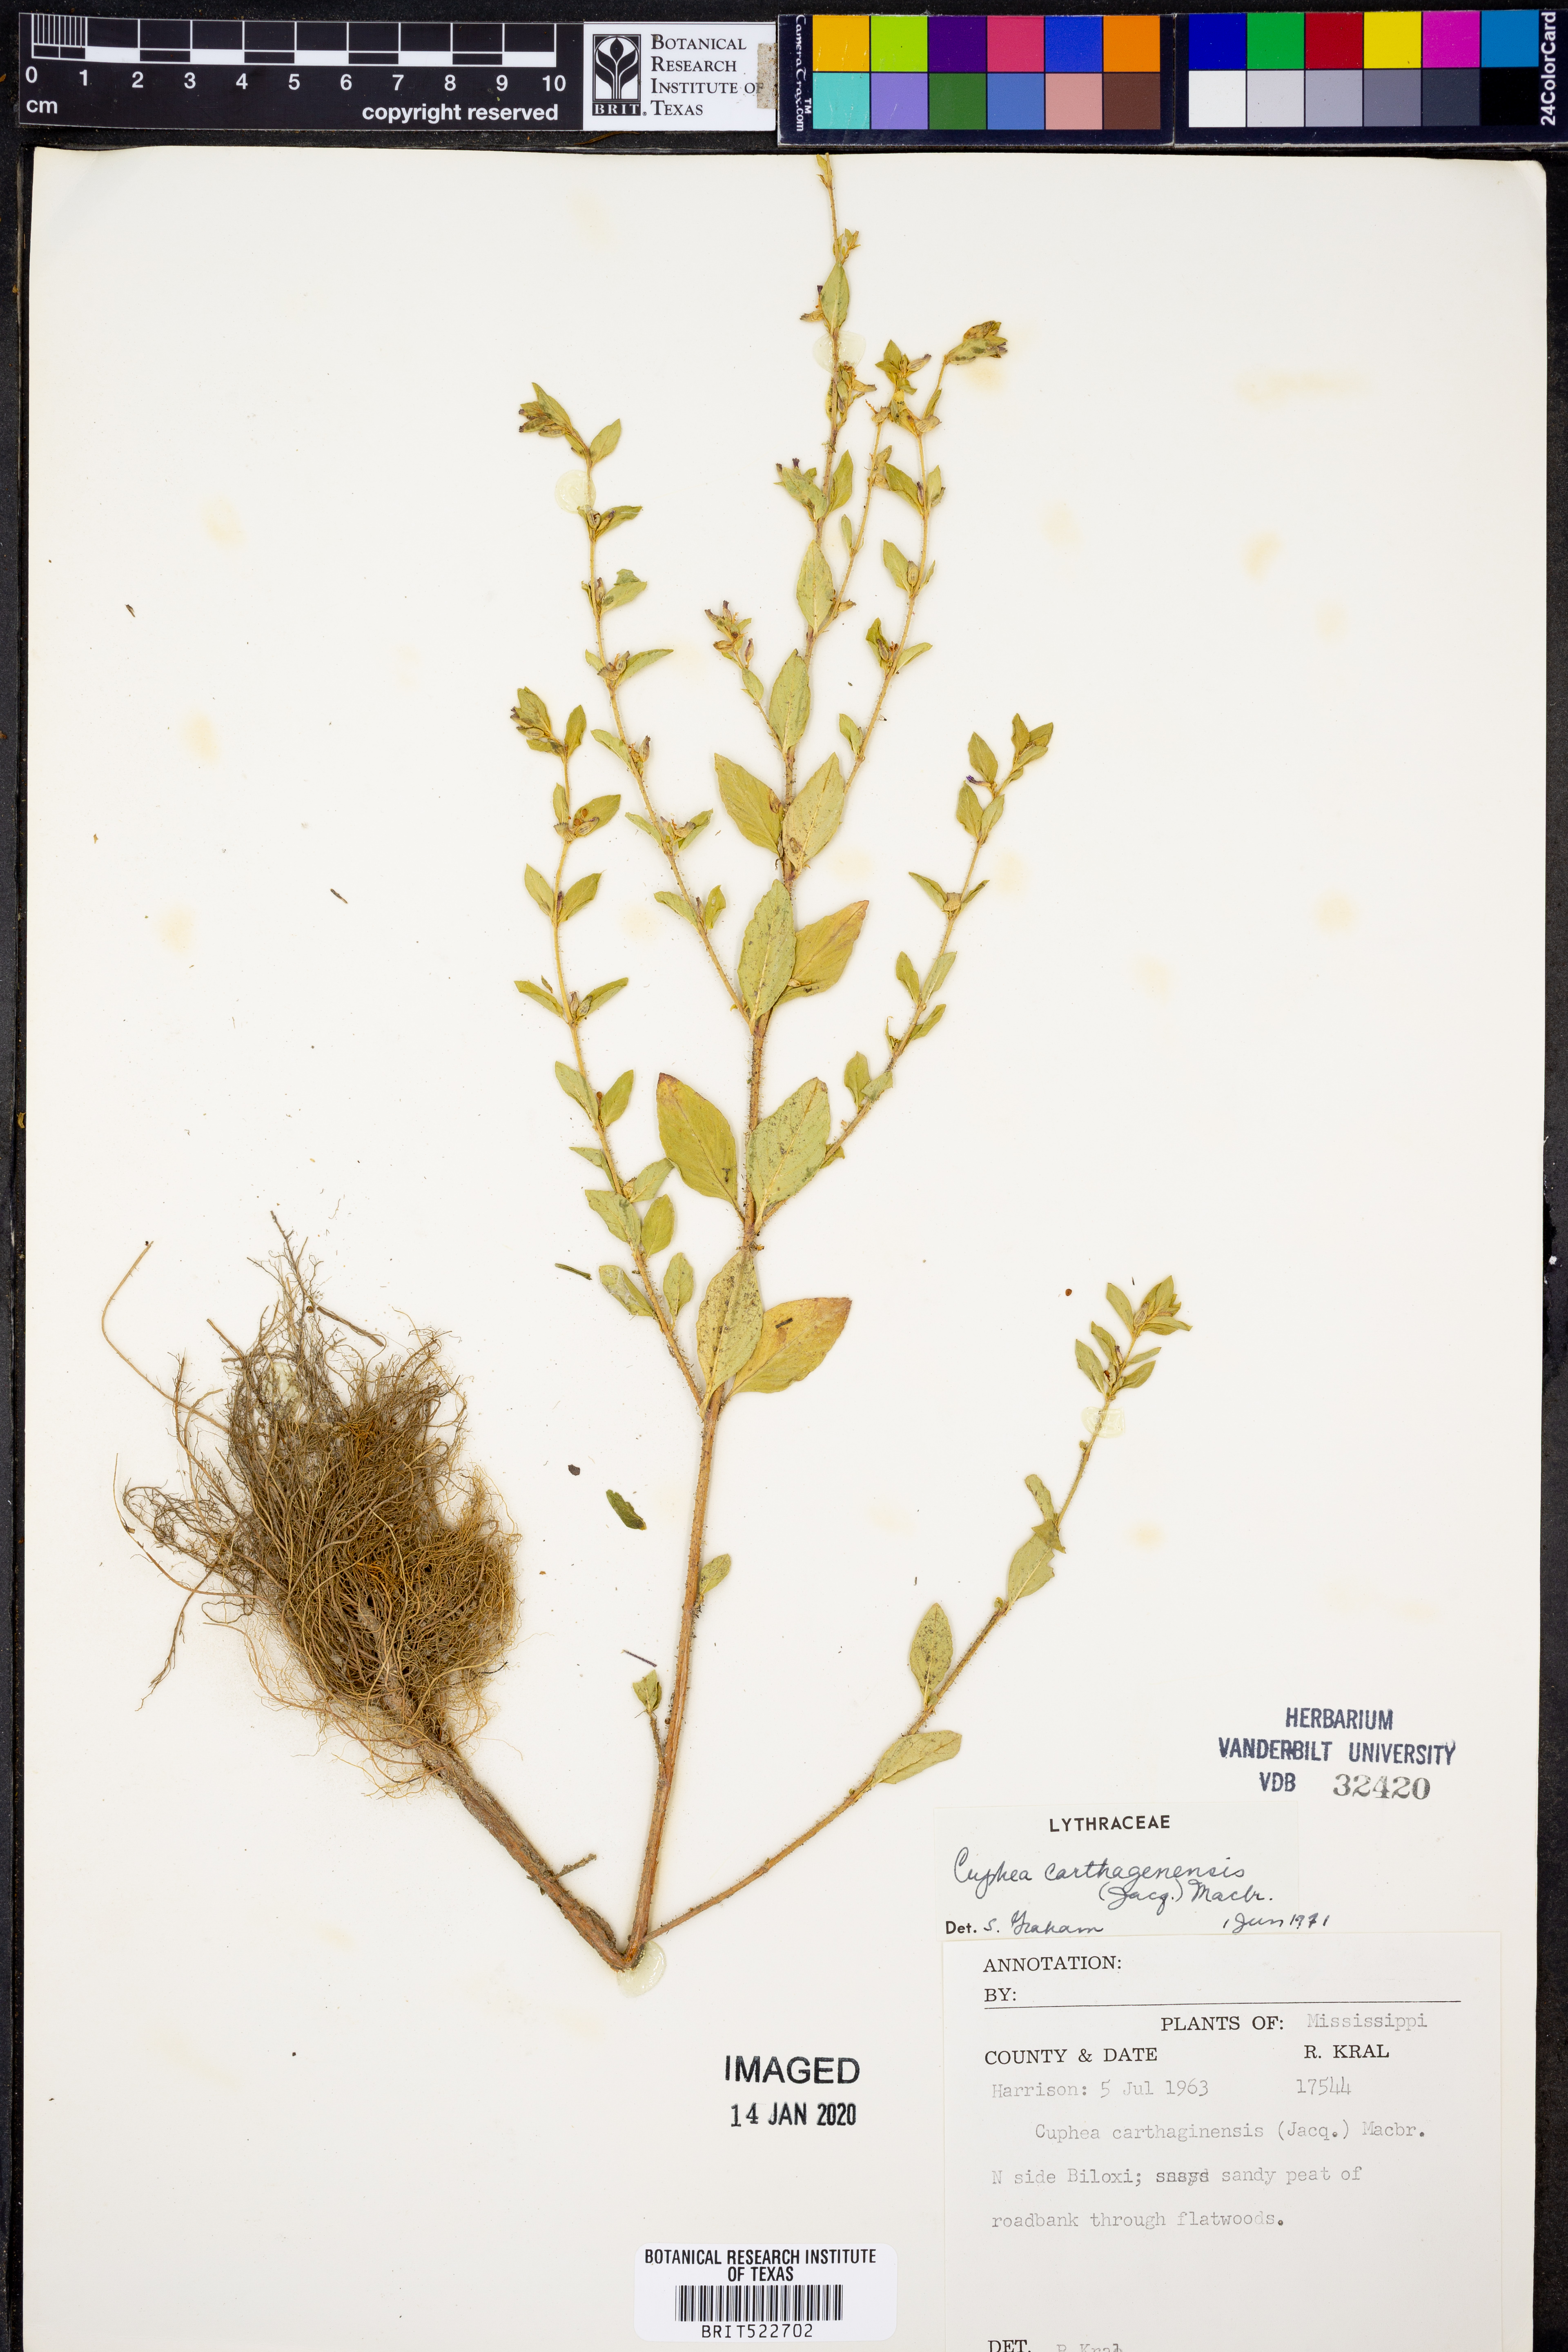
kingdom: Plantae
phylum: Tracheophyta
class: Magnoliopsida
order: Myrtales
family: Lythraceae
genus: Cuphea
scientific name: Cuphea carthagenensis
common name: Colombian waxweed
